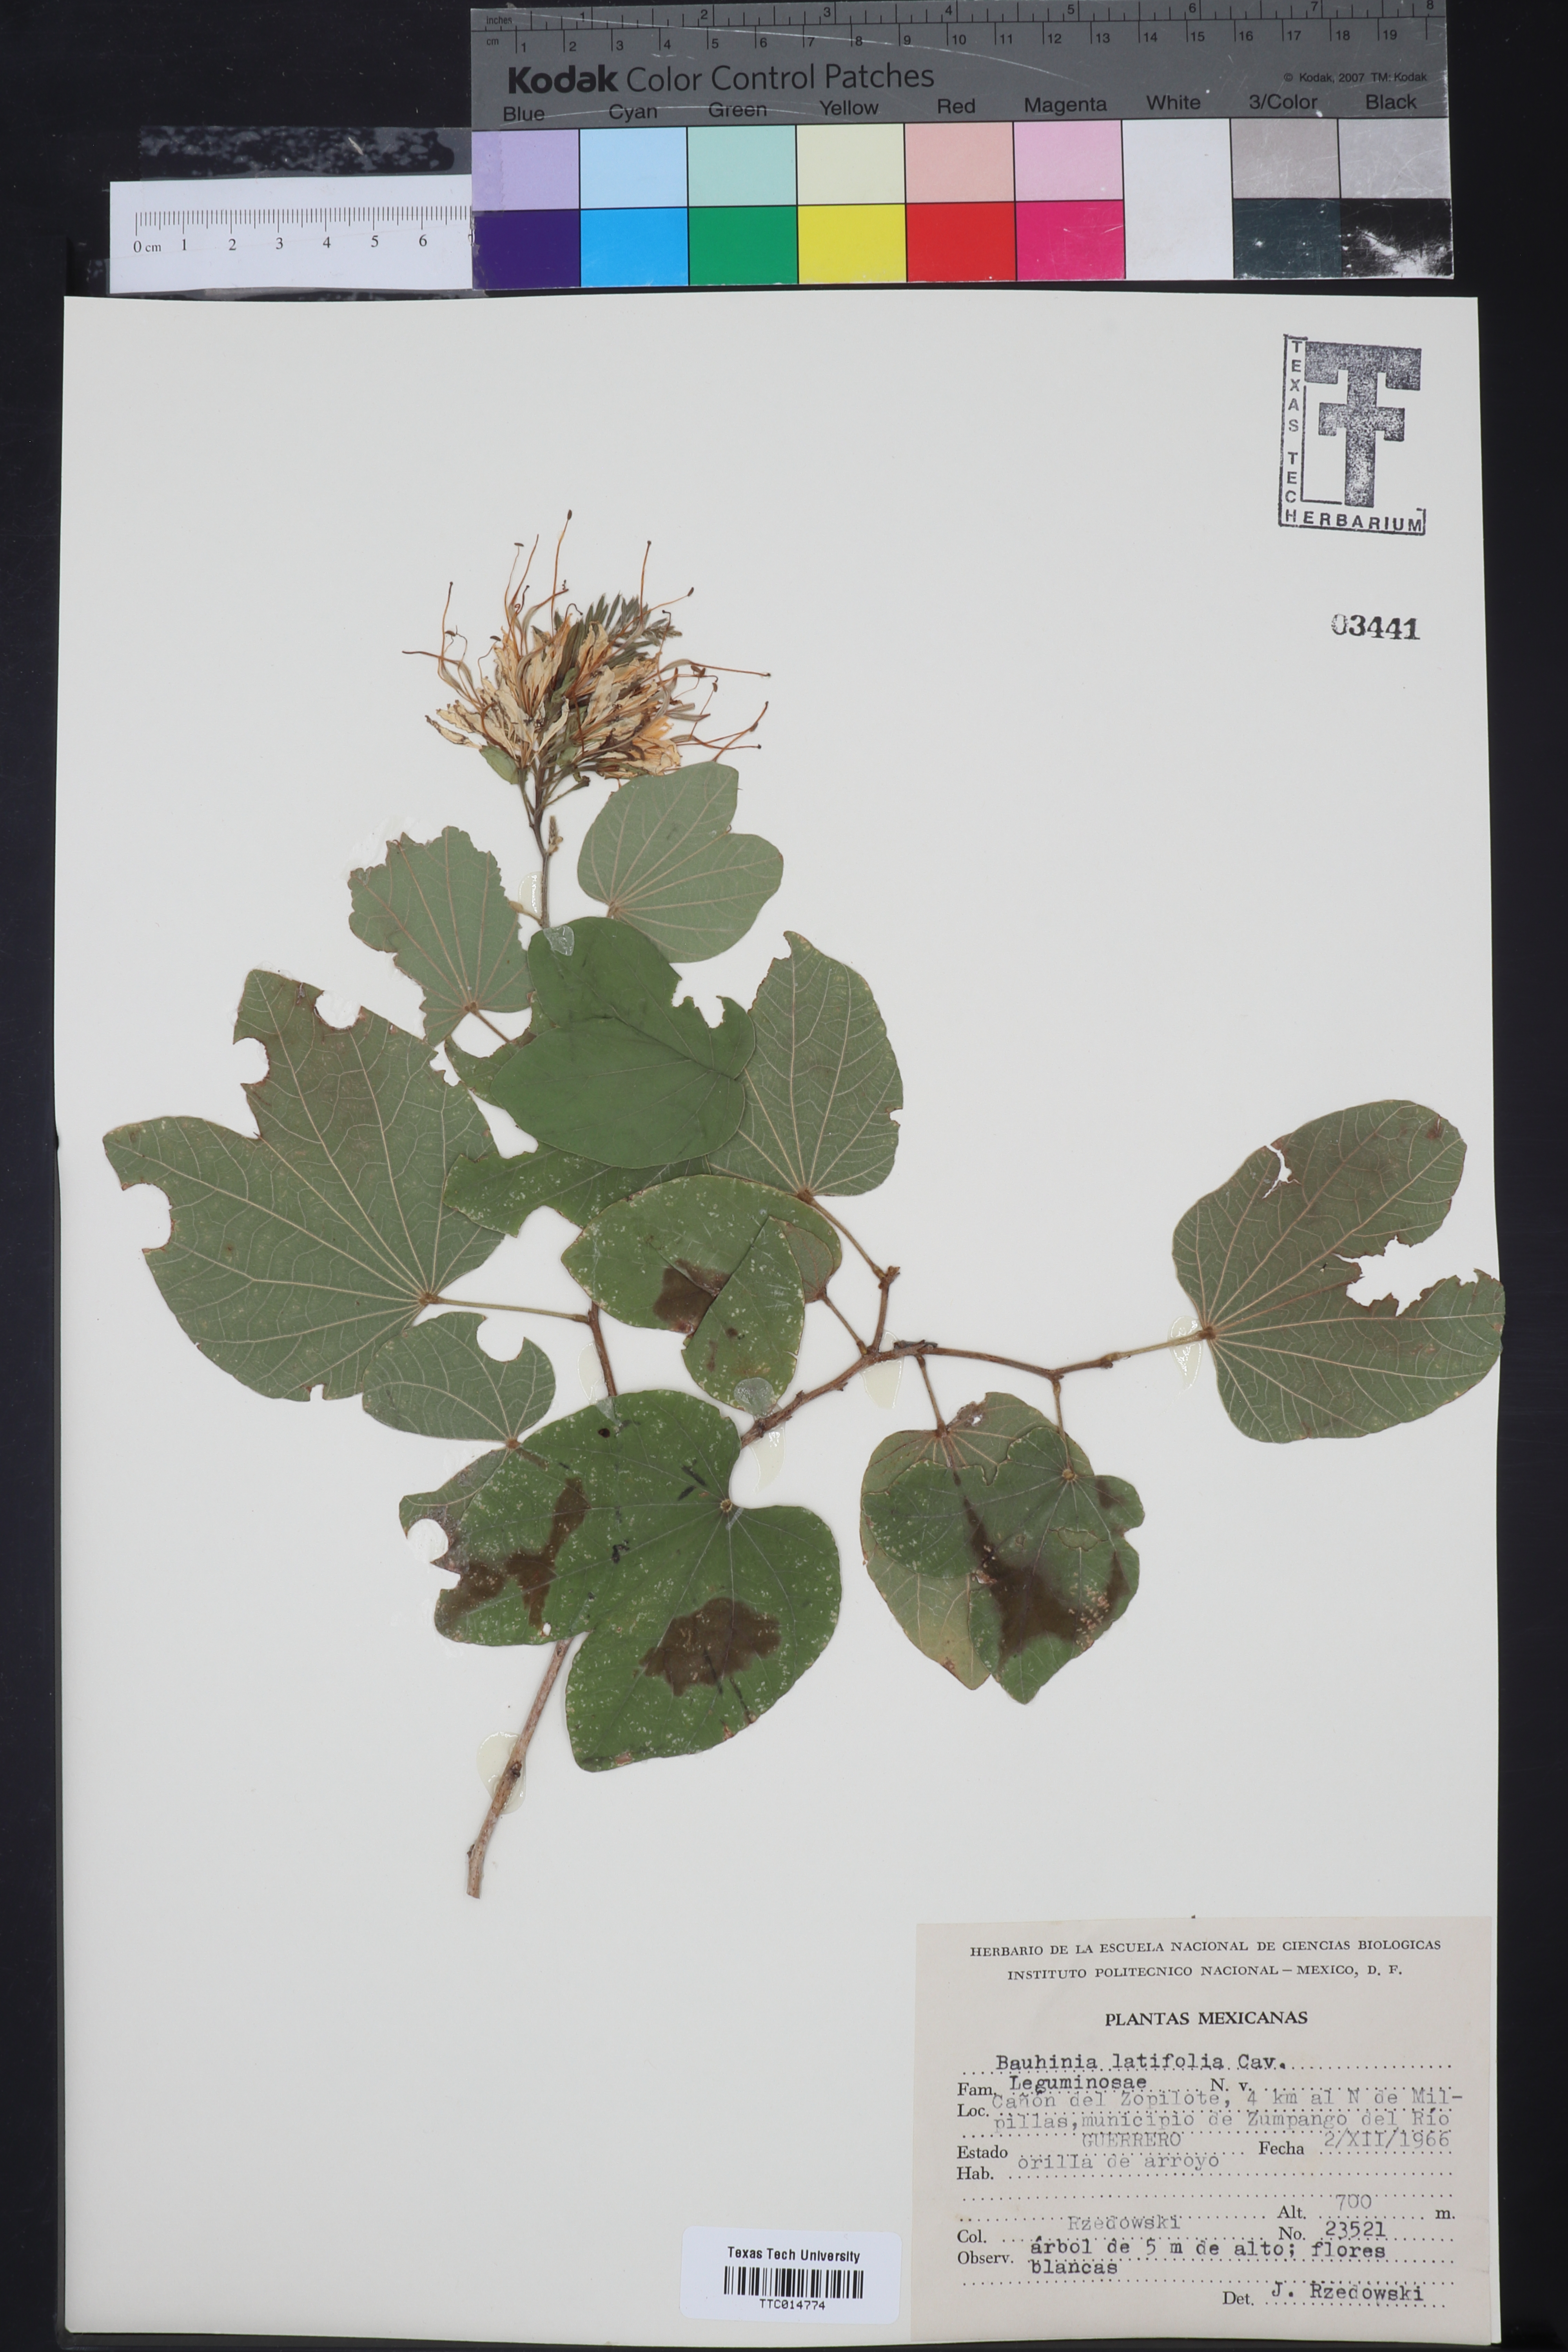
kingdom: Plantae
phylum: Tracheophyta
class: Magnoliopsida
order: Fabales
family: Fabaceae
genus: Bauhinia
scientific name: Bauhinia divaricata
